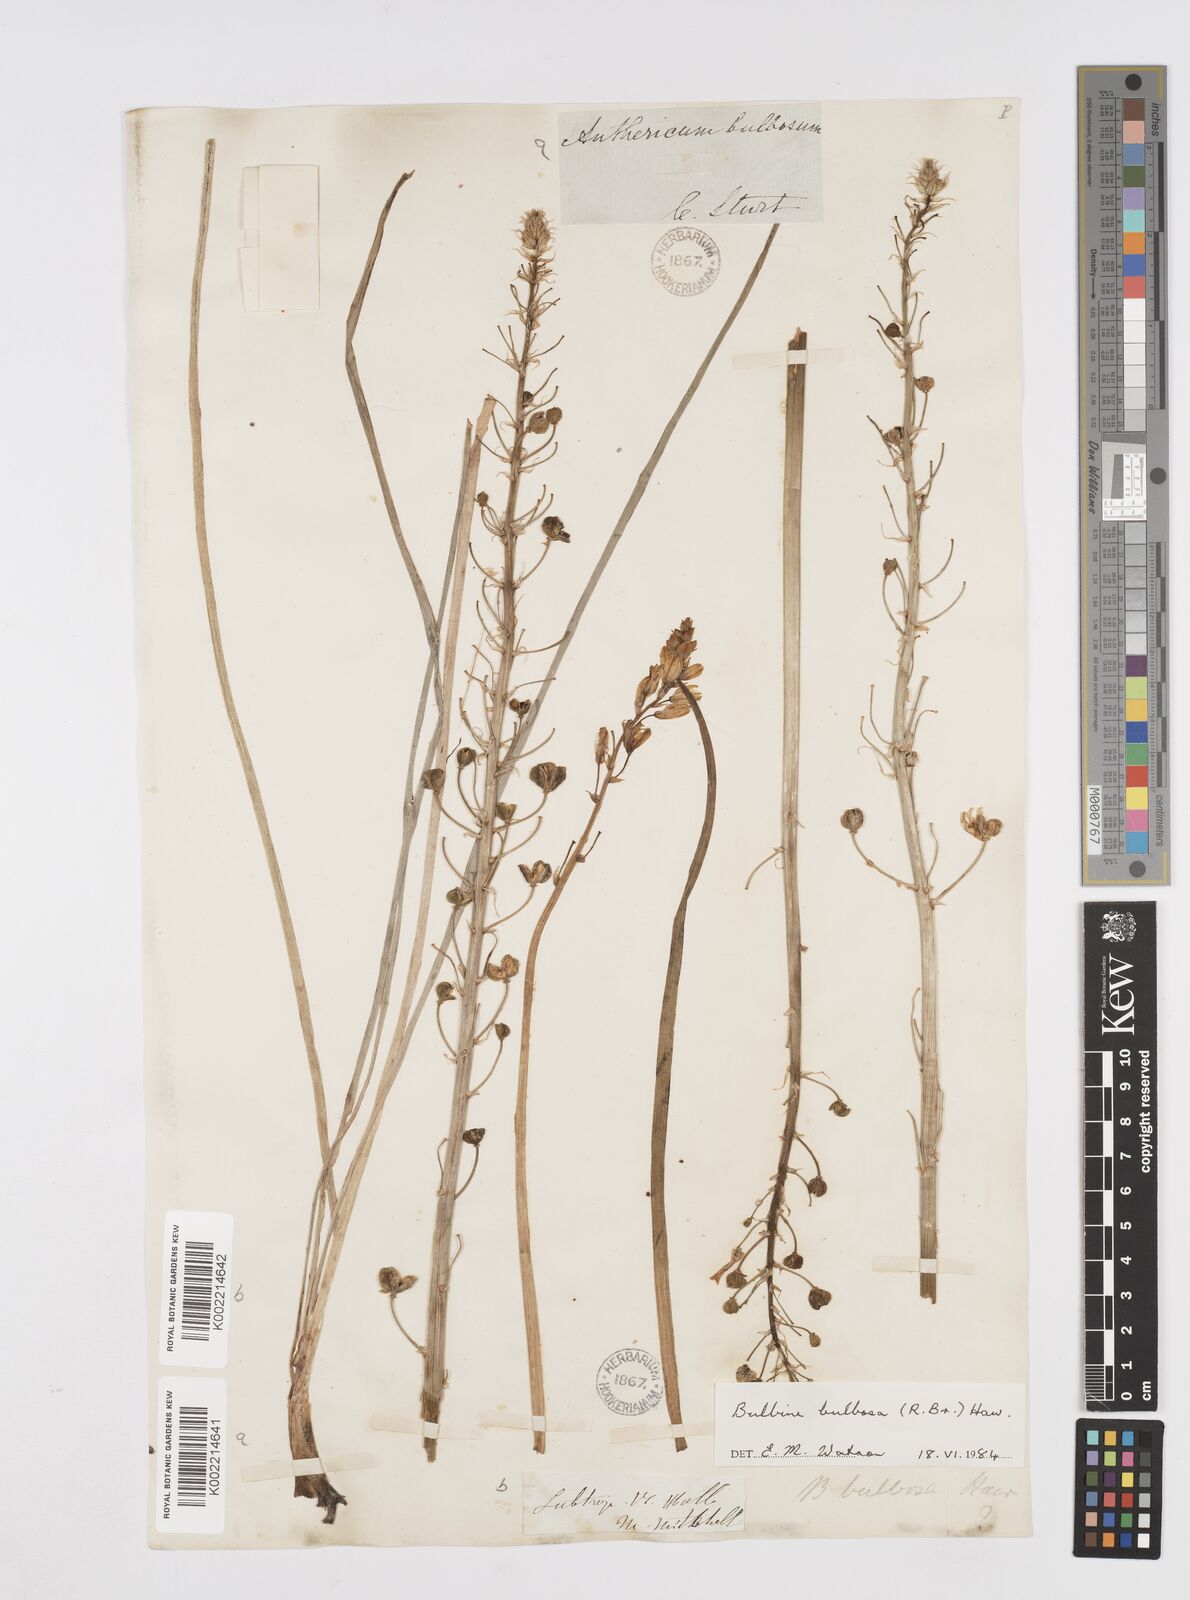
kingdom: Plantae
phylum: Tracheophyta
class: Liliopsida
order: Asparagales
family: Asphodelaceae
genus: Bulbine
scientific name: Bulbine bulbosa
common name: Golden-lily
